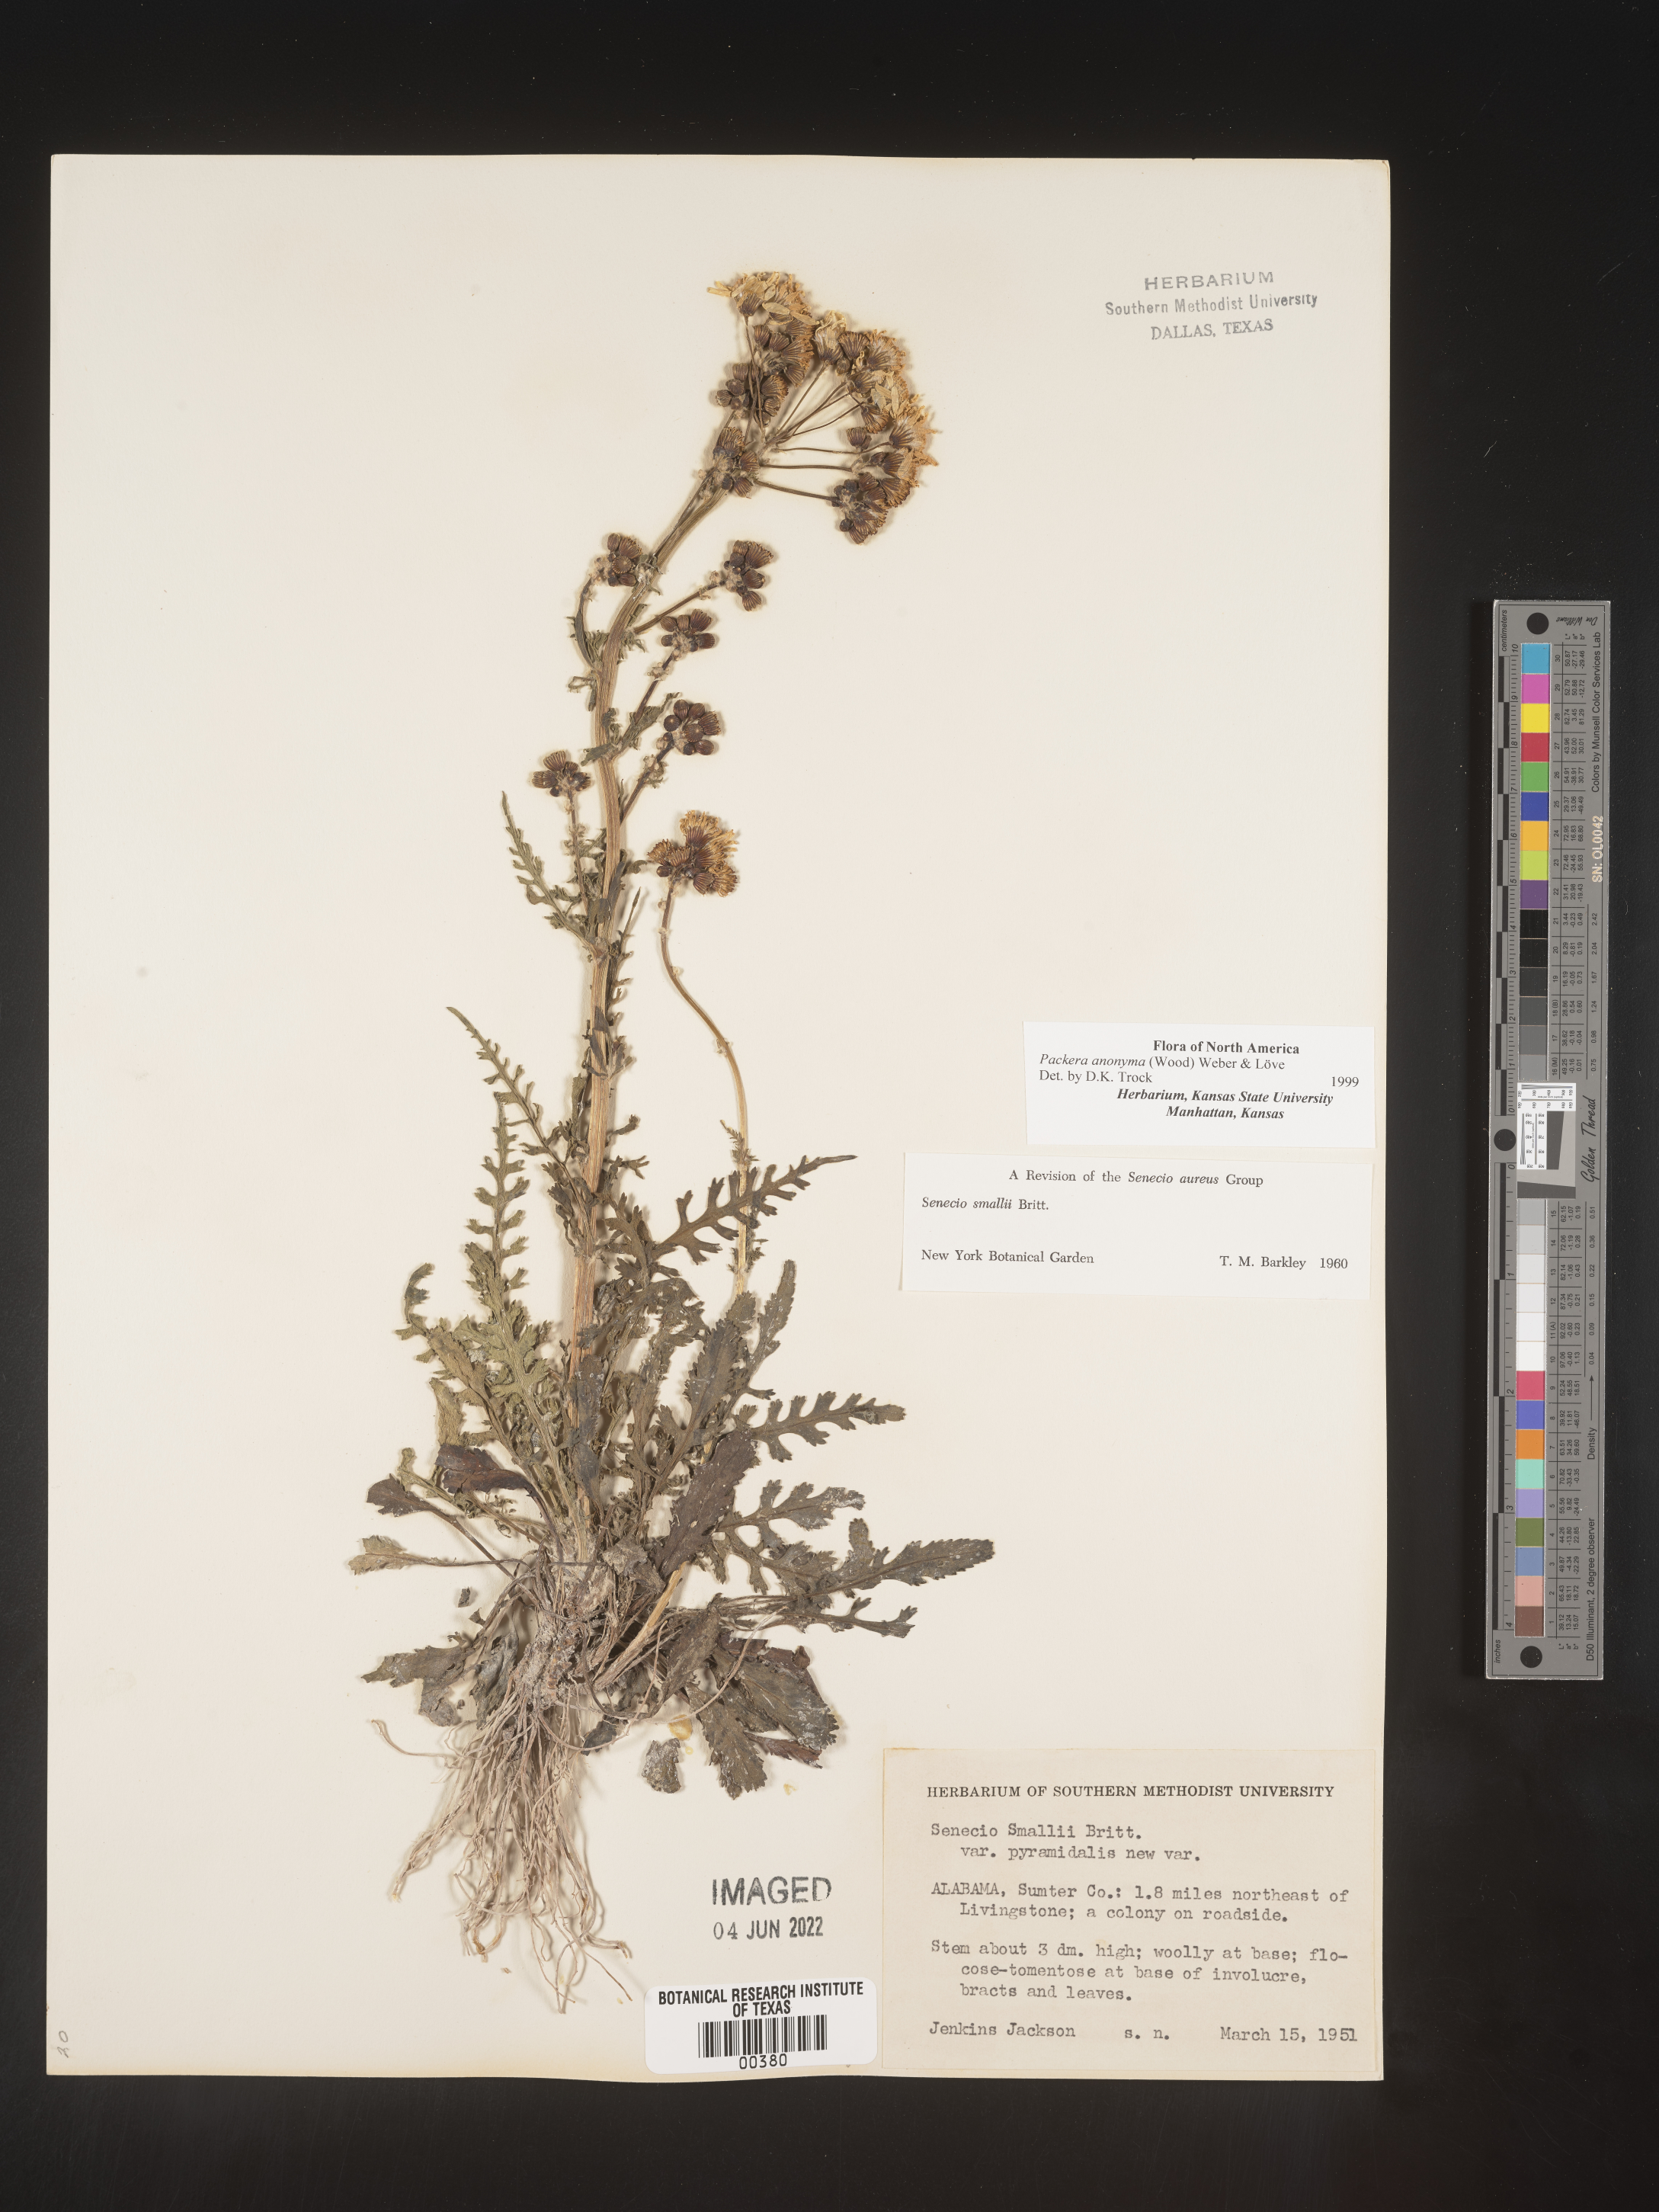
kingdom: Plantae
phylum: Tracheophyta
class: Magnoliopsida
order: Asterales
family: Asteraceae
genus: Packera
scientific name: Packera anonyma
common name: Small ragwort
